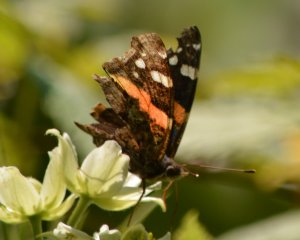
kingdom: Animalia
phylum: Arthropoda
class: Insecta
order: Lepidoptera
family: Nymphalidae
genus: Vanessa
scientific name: Vanessa atalanta
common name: Red Admiral
